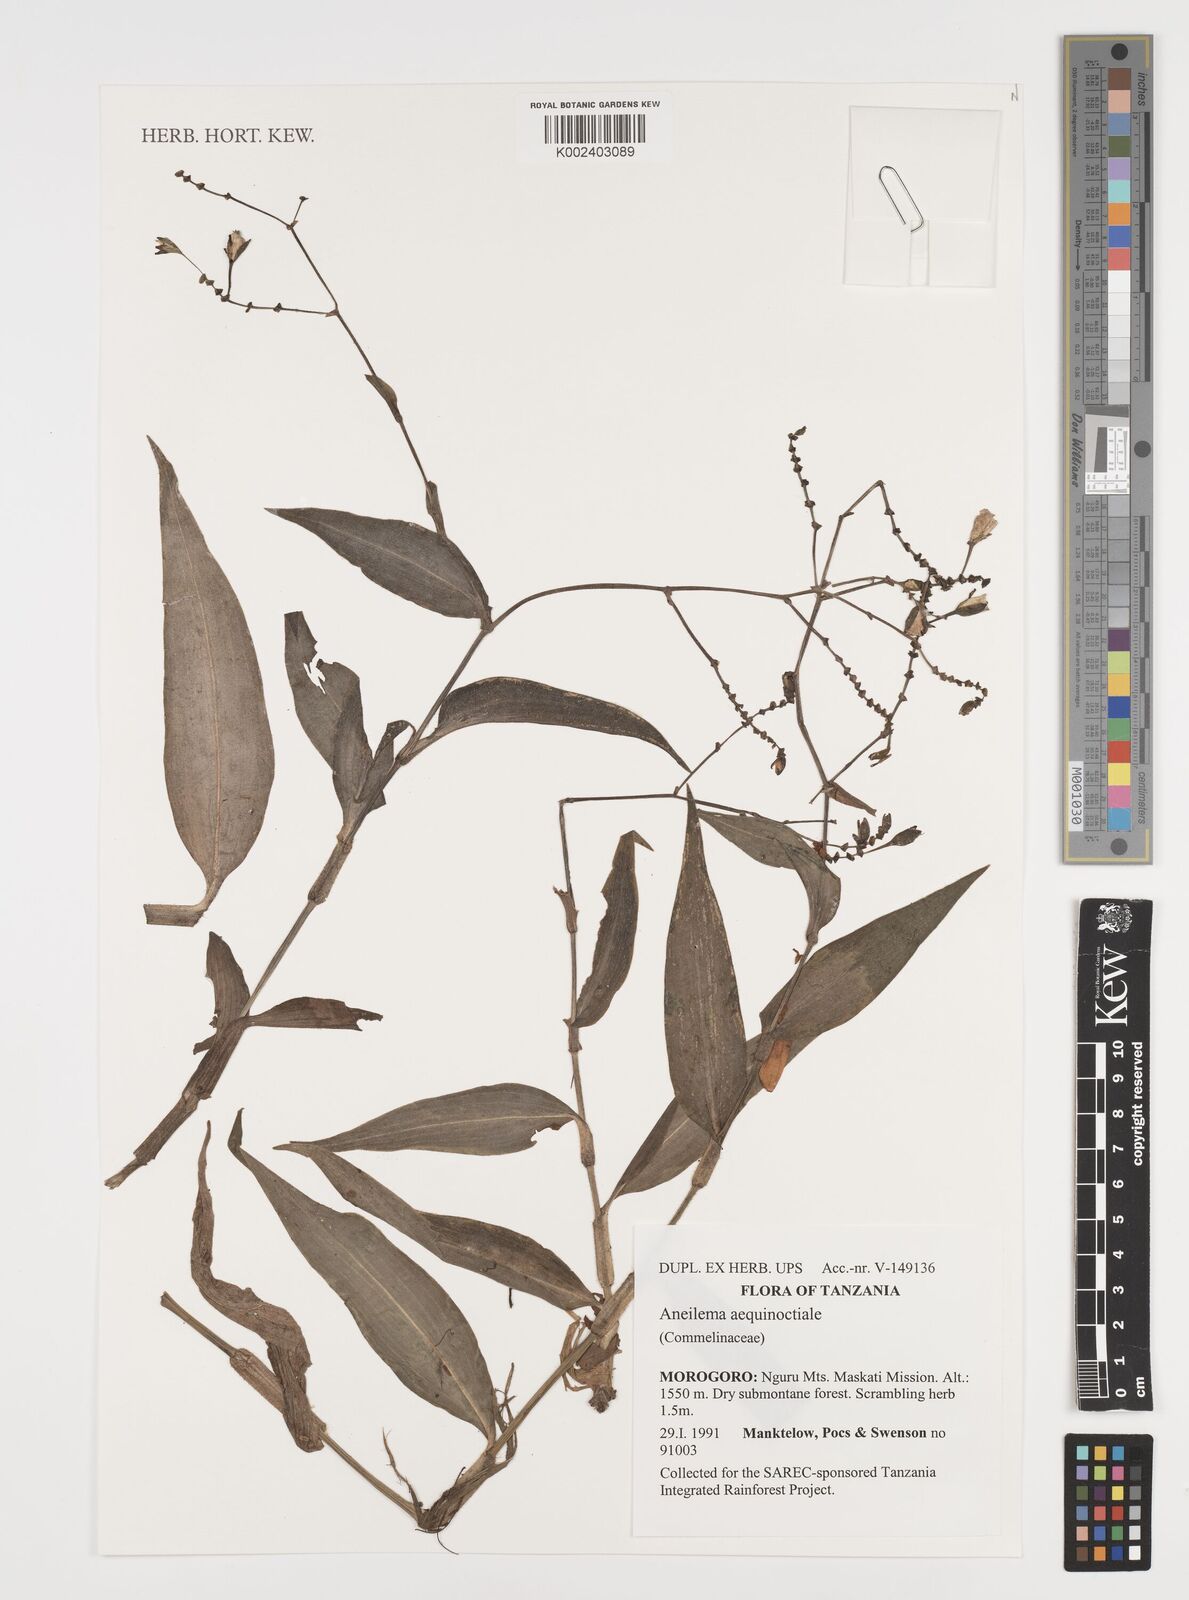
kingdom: Plantae
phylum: Tracheophyta
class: Liliopsida
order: Commelinales
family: Commelinaceae
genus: Aneilema
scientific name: Aneilema aequinoctiale
